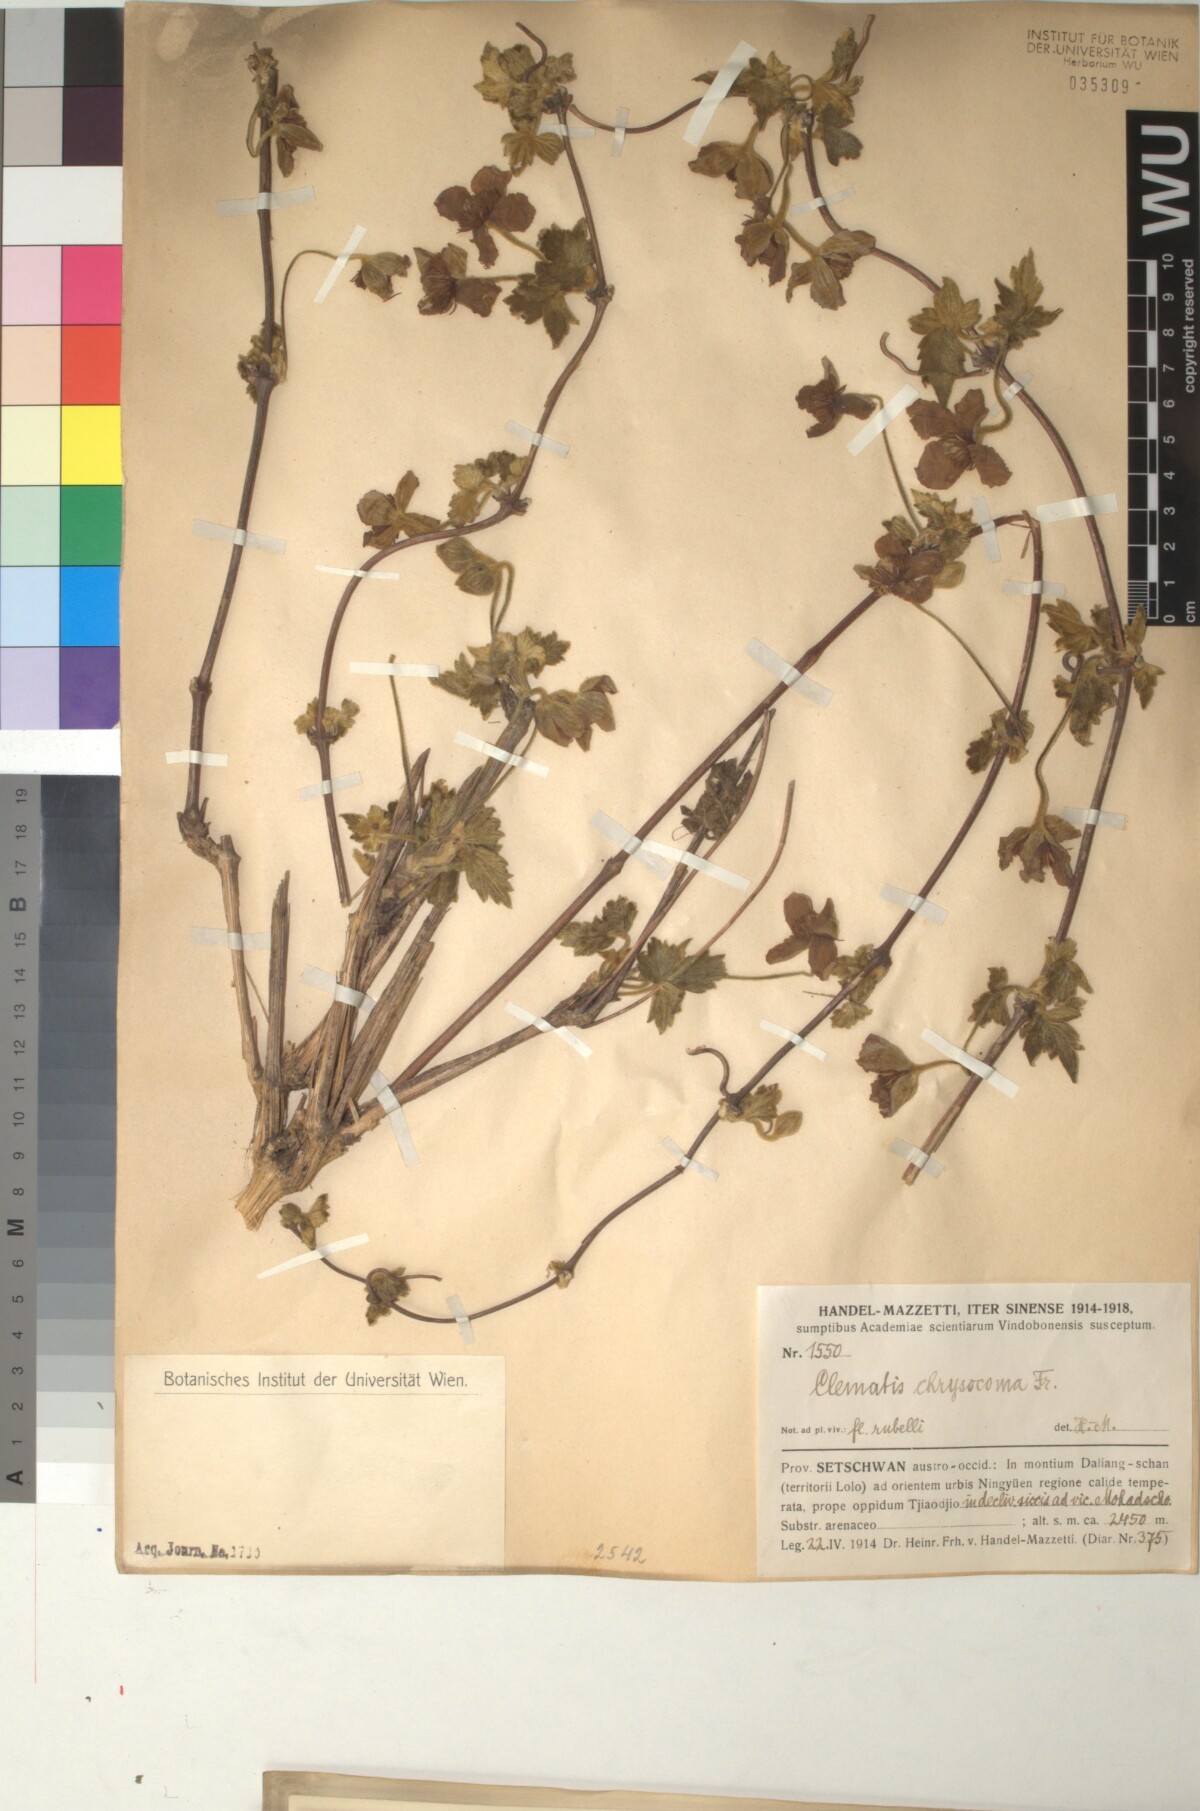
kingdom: Plantae
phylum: Tracheophyta
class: Magnoliopsida
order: Ranunculales
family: Ranunculaceae
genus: Clematis
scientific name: Clematis chrysocoma
